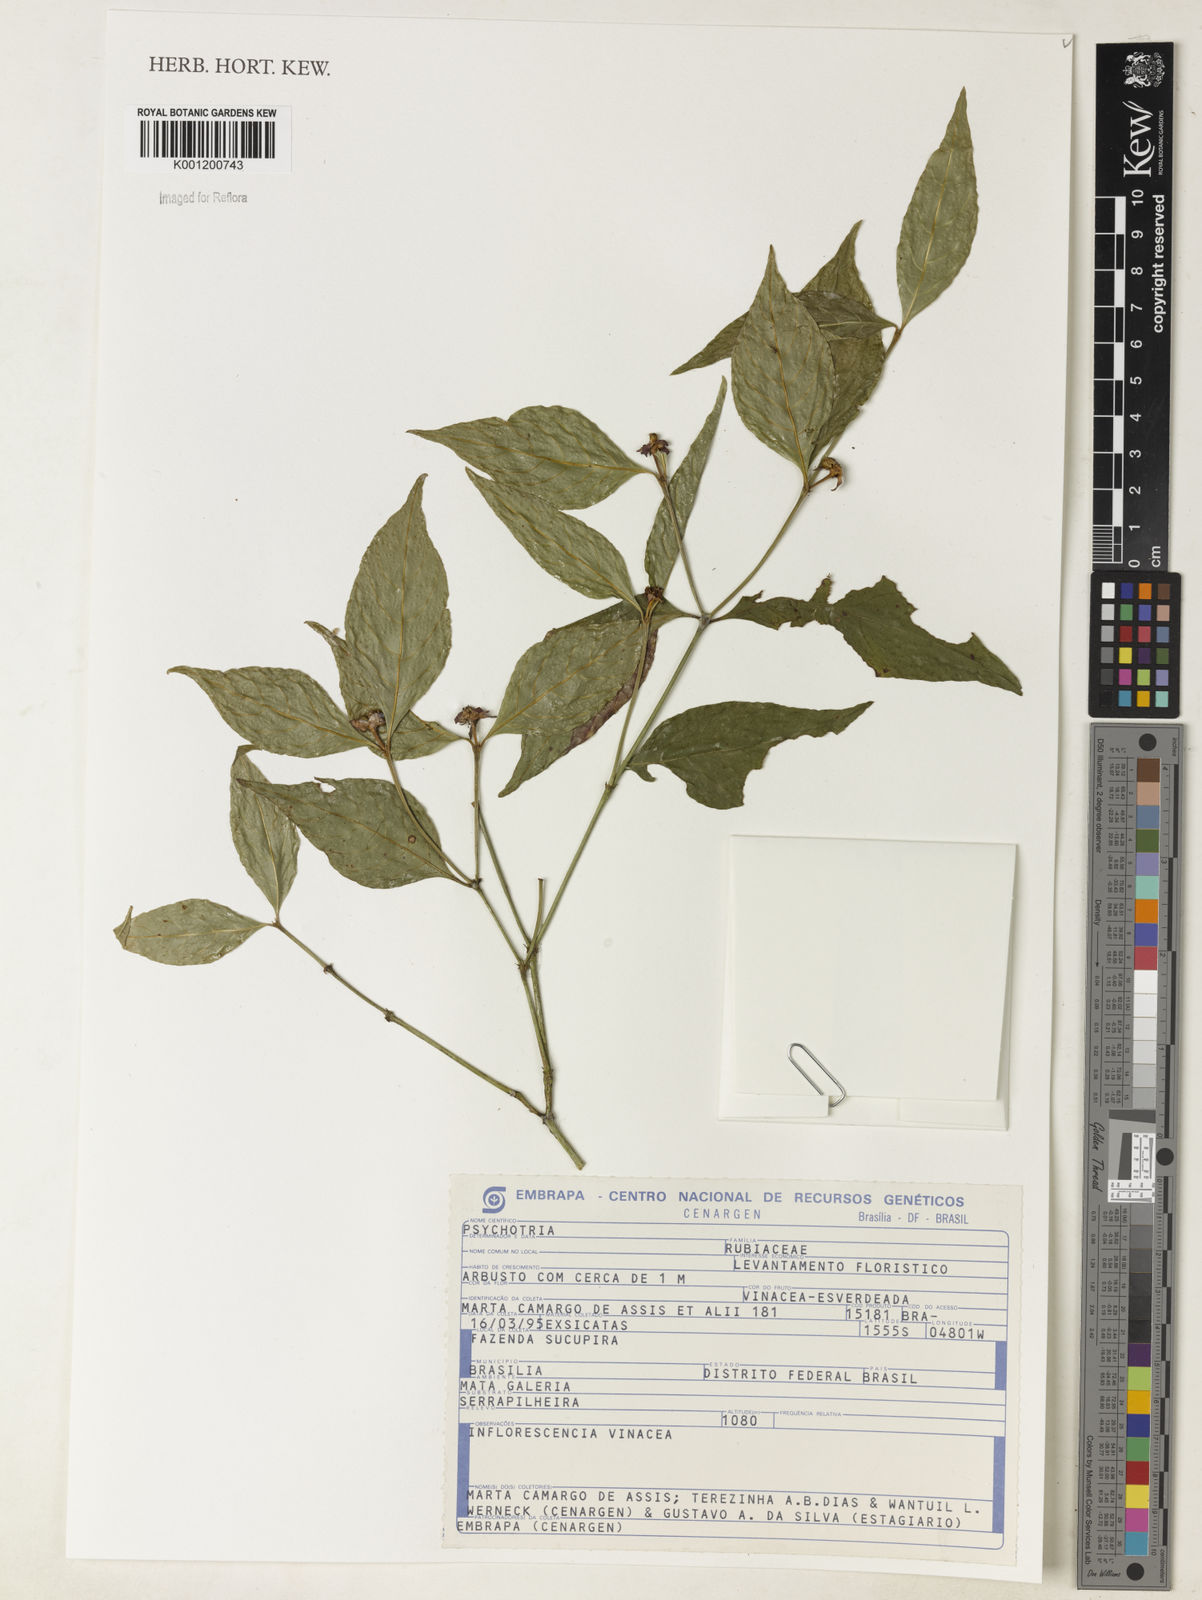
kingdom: Plantae
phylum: Tracheophyta
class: Magnoliopsida
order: Gentianales
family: Rubiaceae
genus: Psychotria
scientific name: Psychotria
